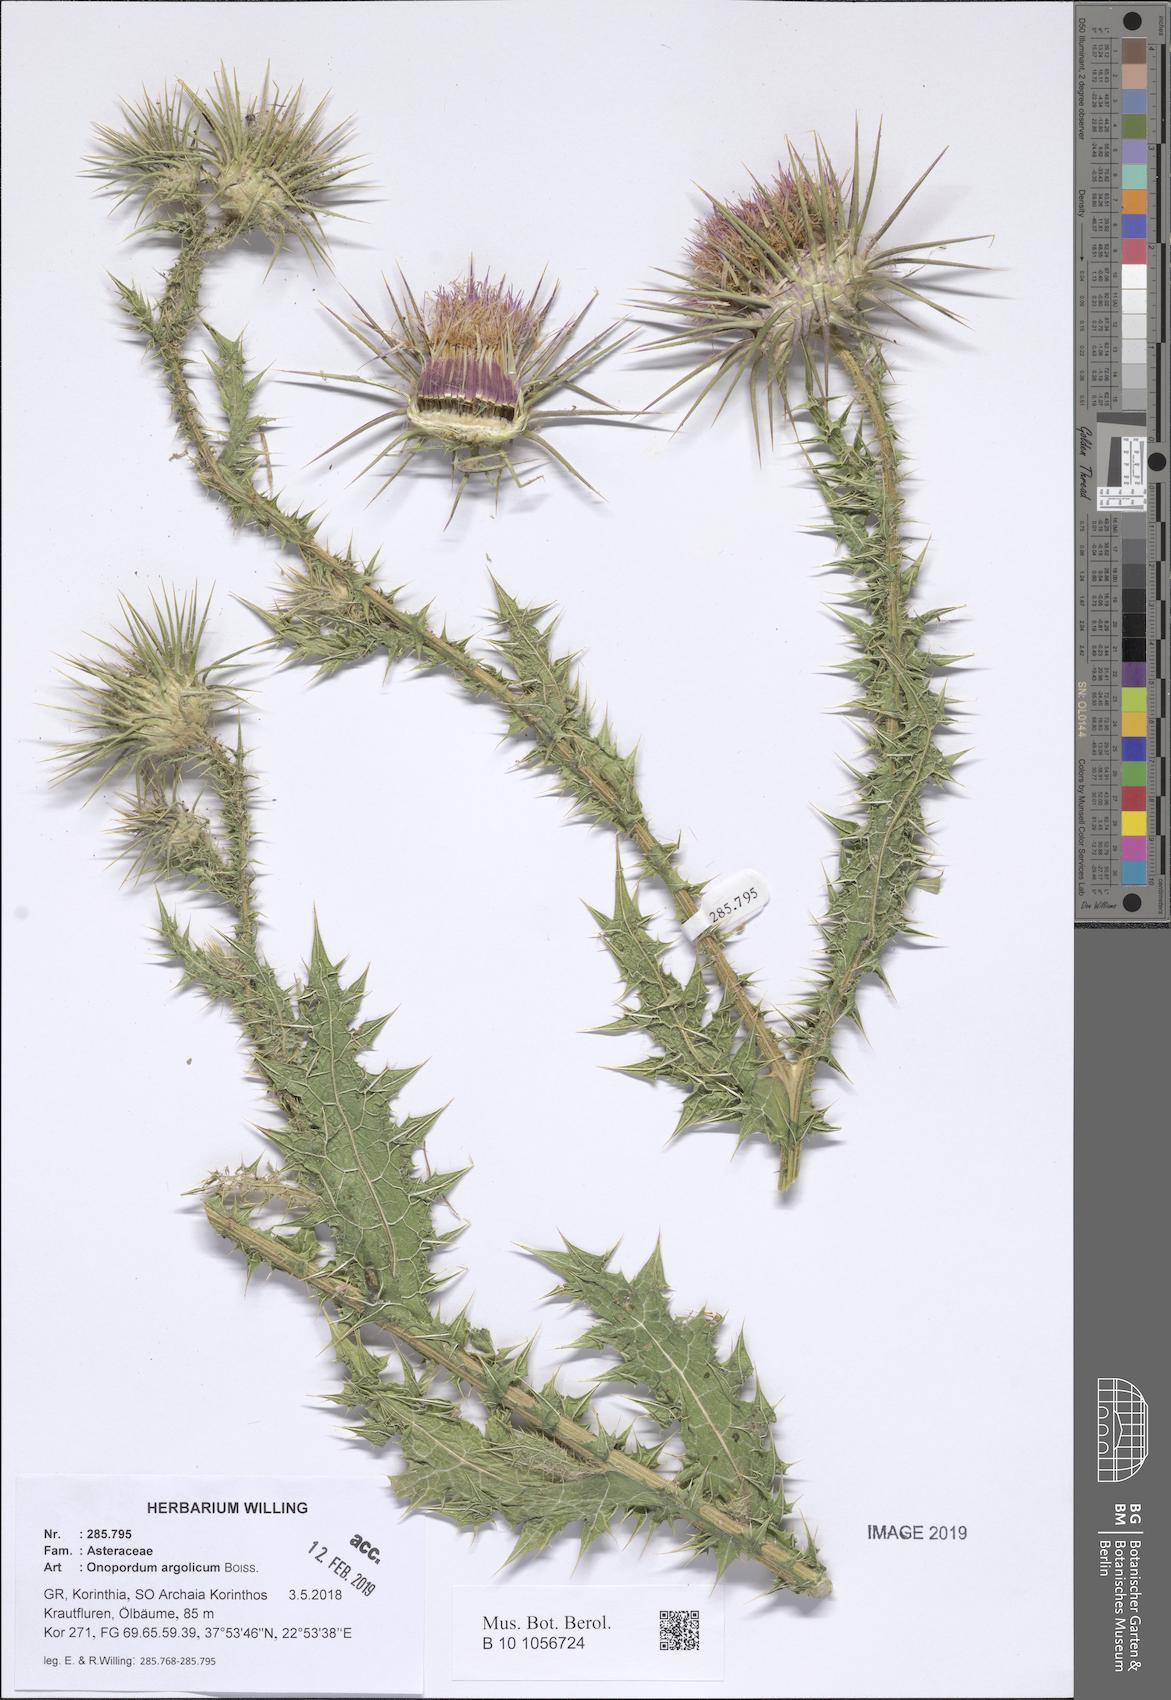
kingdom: Plantae
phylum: Tracheophyta
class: Magnoliopsida
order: Asterales
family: Asteraceae
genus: Onopordum
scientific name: Onopordum tauricum
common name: Bull cottonthistle
